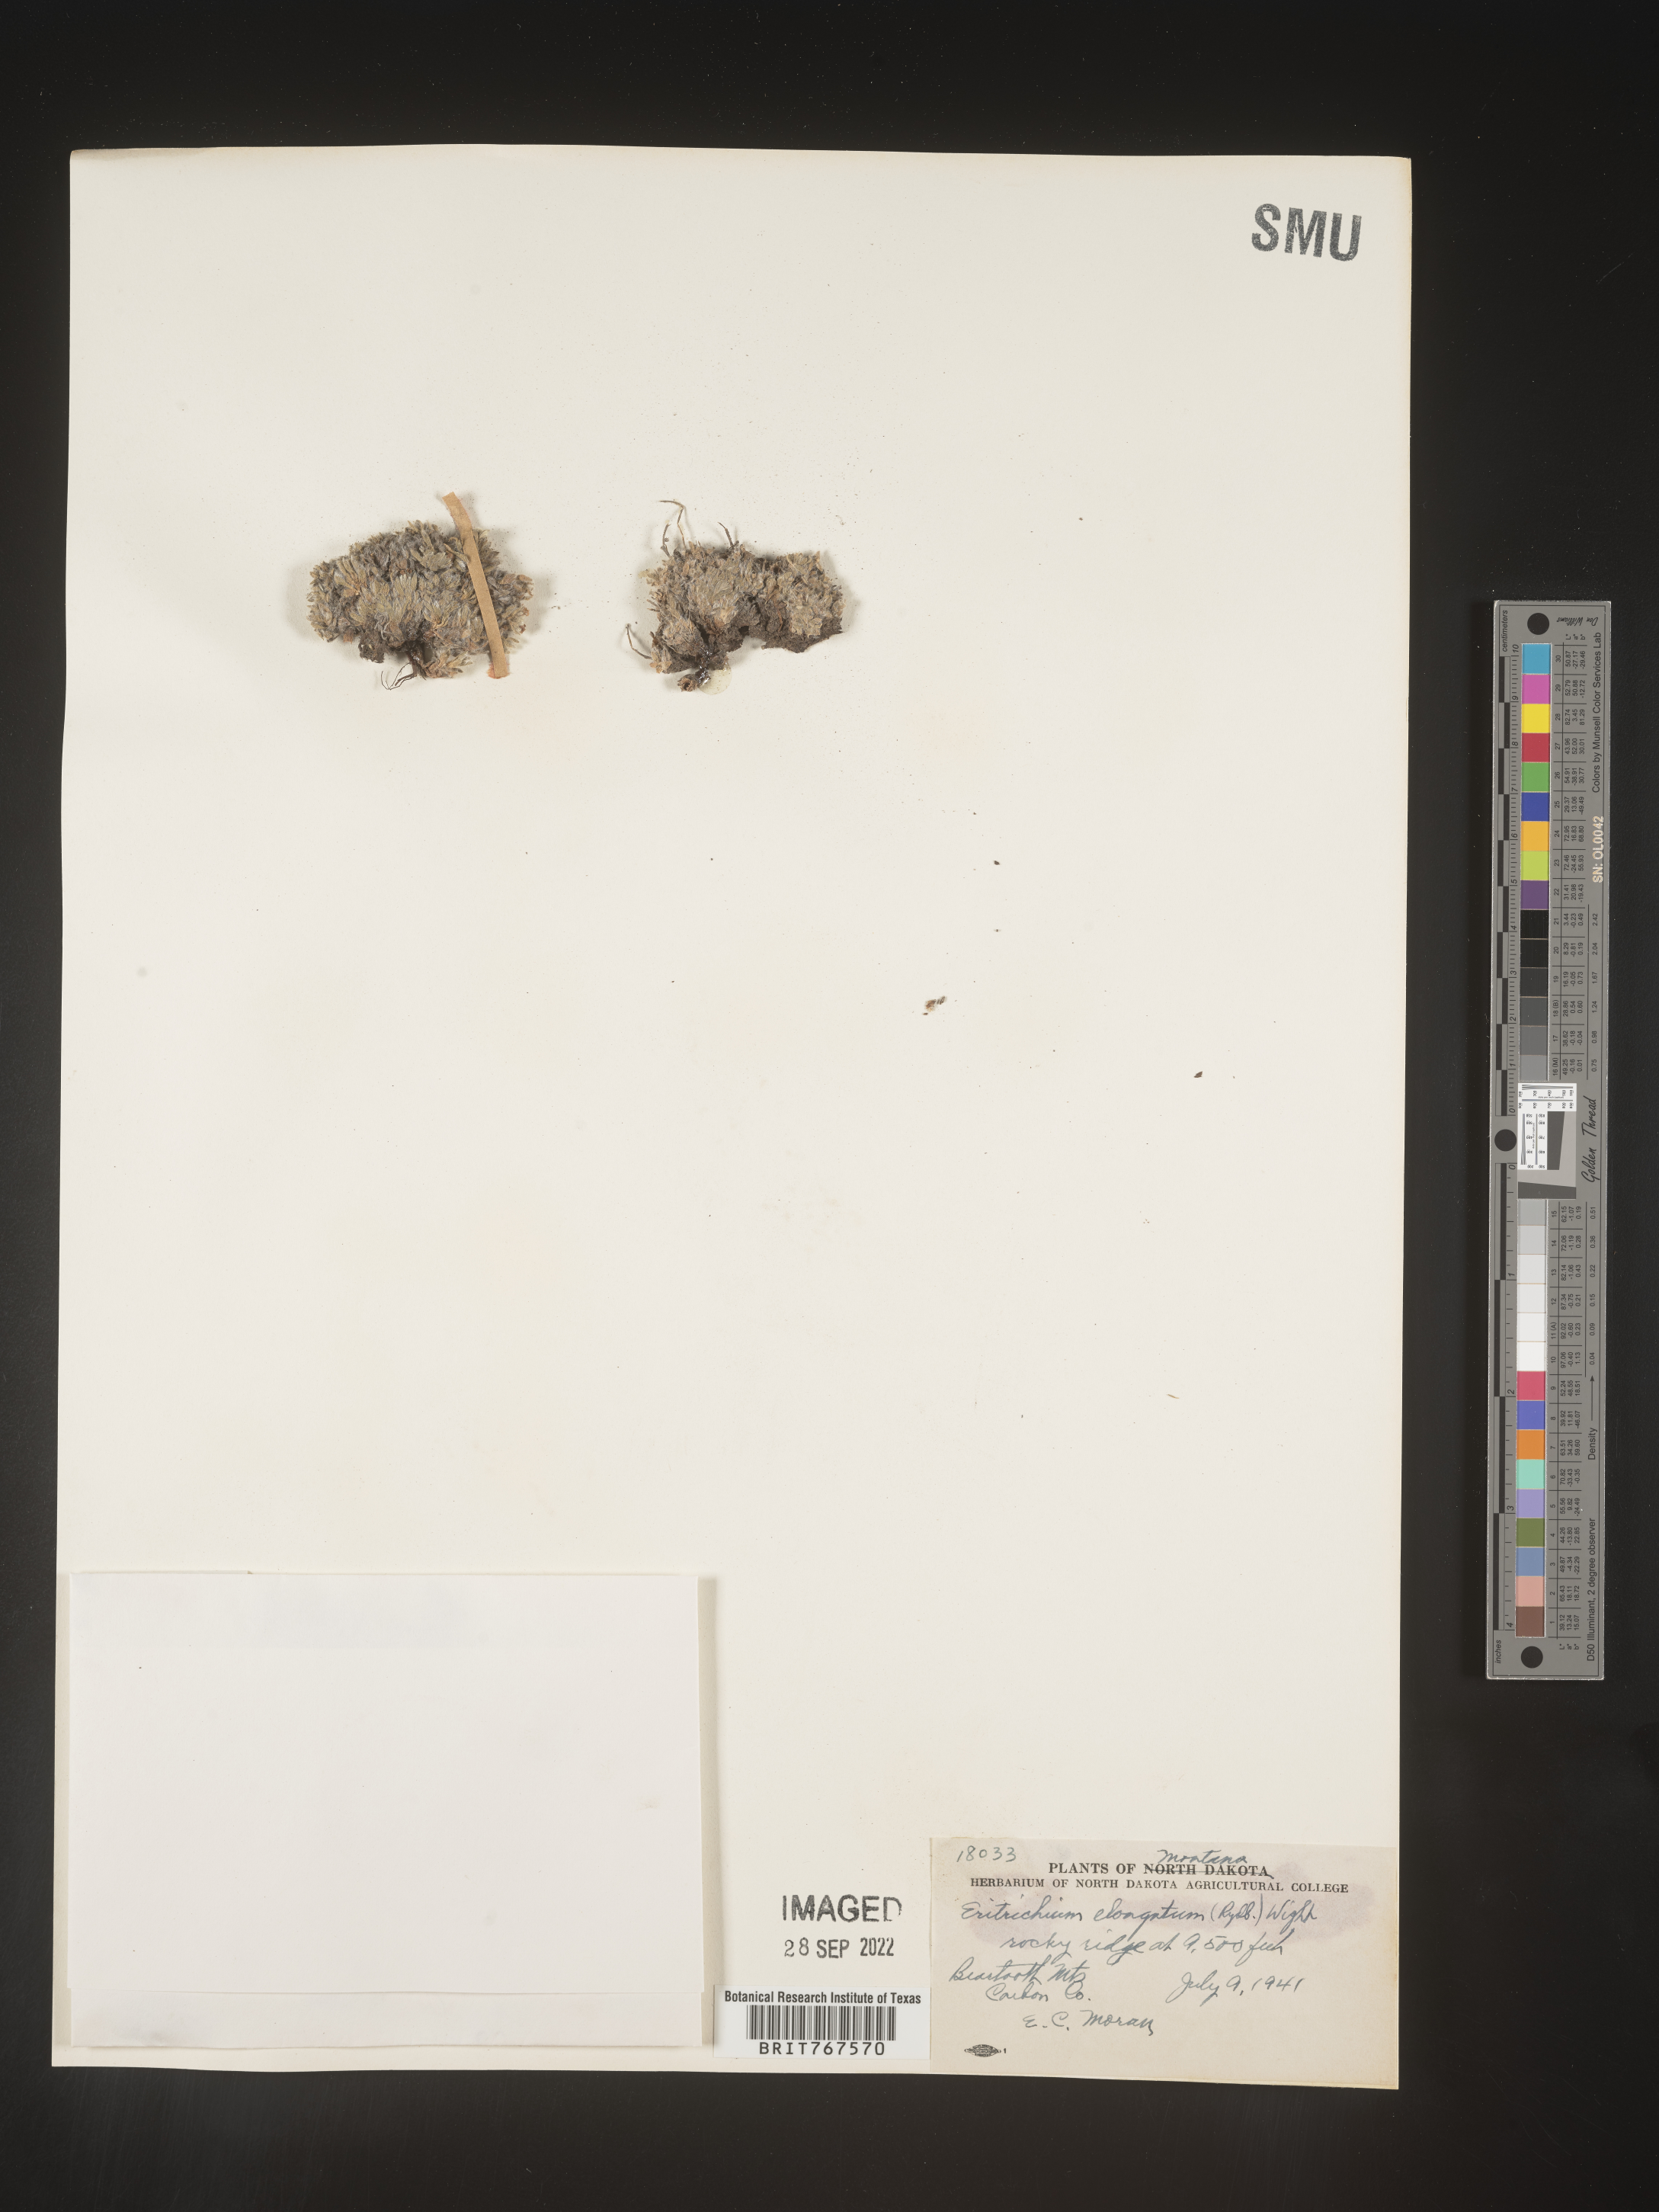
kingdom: Plantae
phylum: Tracheophyta
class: Magnoliopsida
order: Boraginales
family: Boraginaceae
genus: Eritrichium
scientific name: Eritrichium
